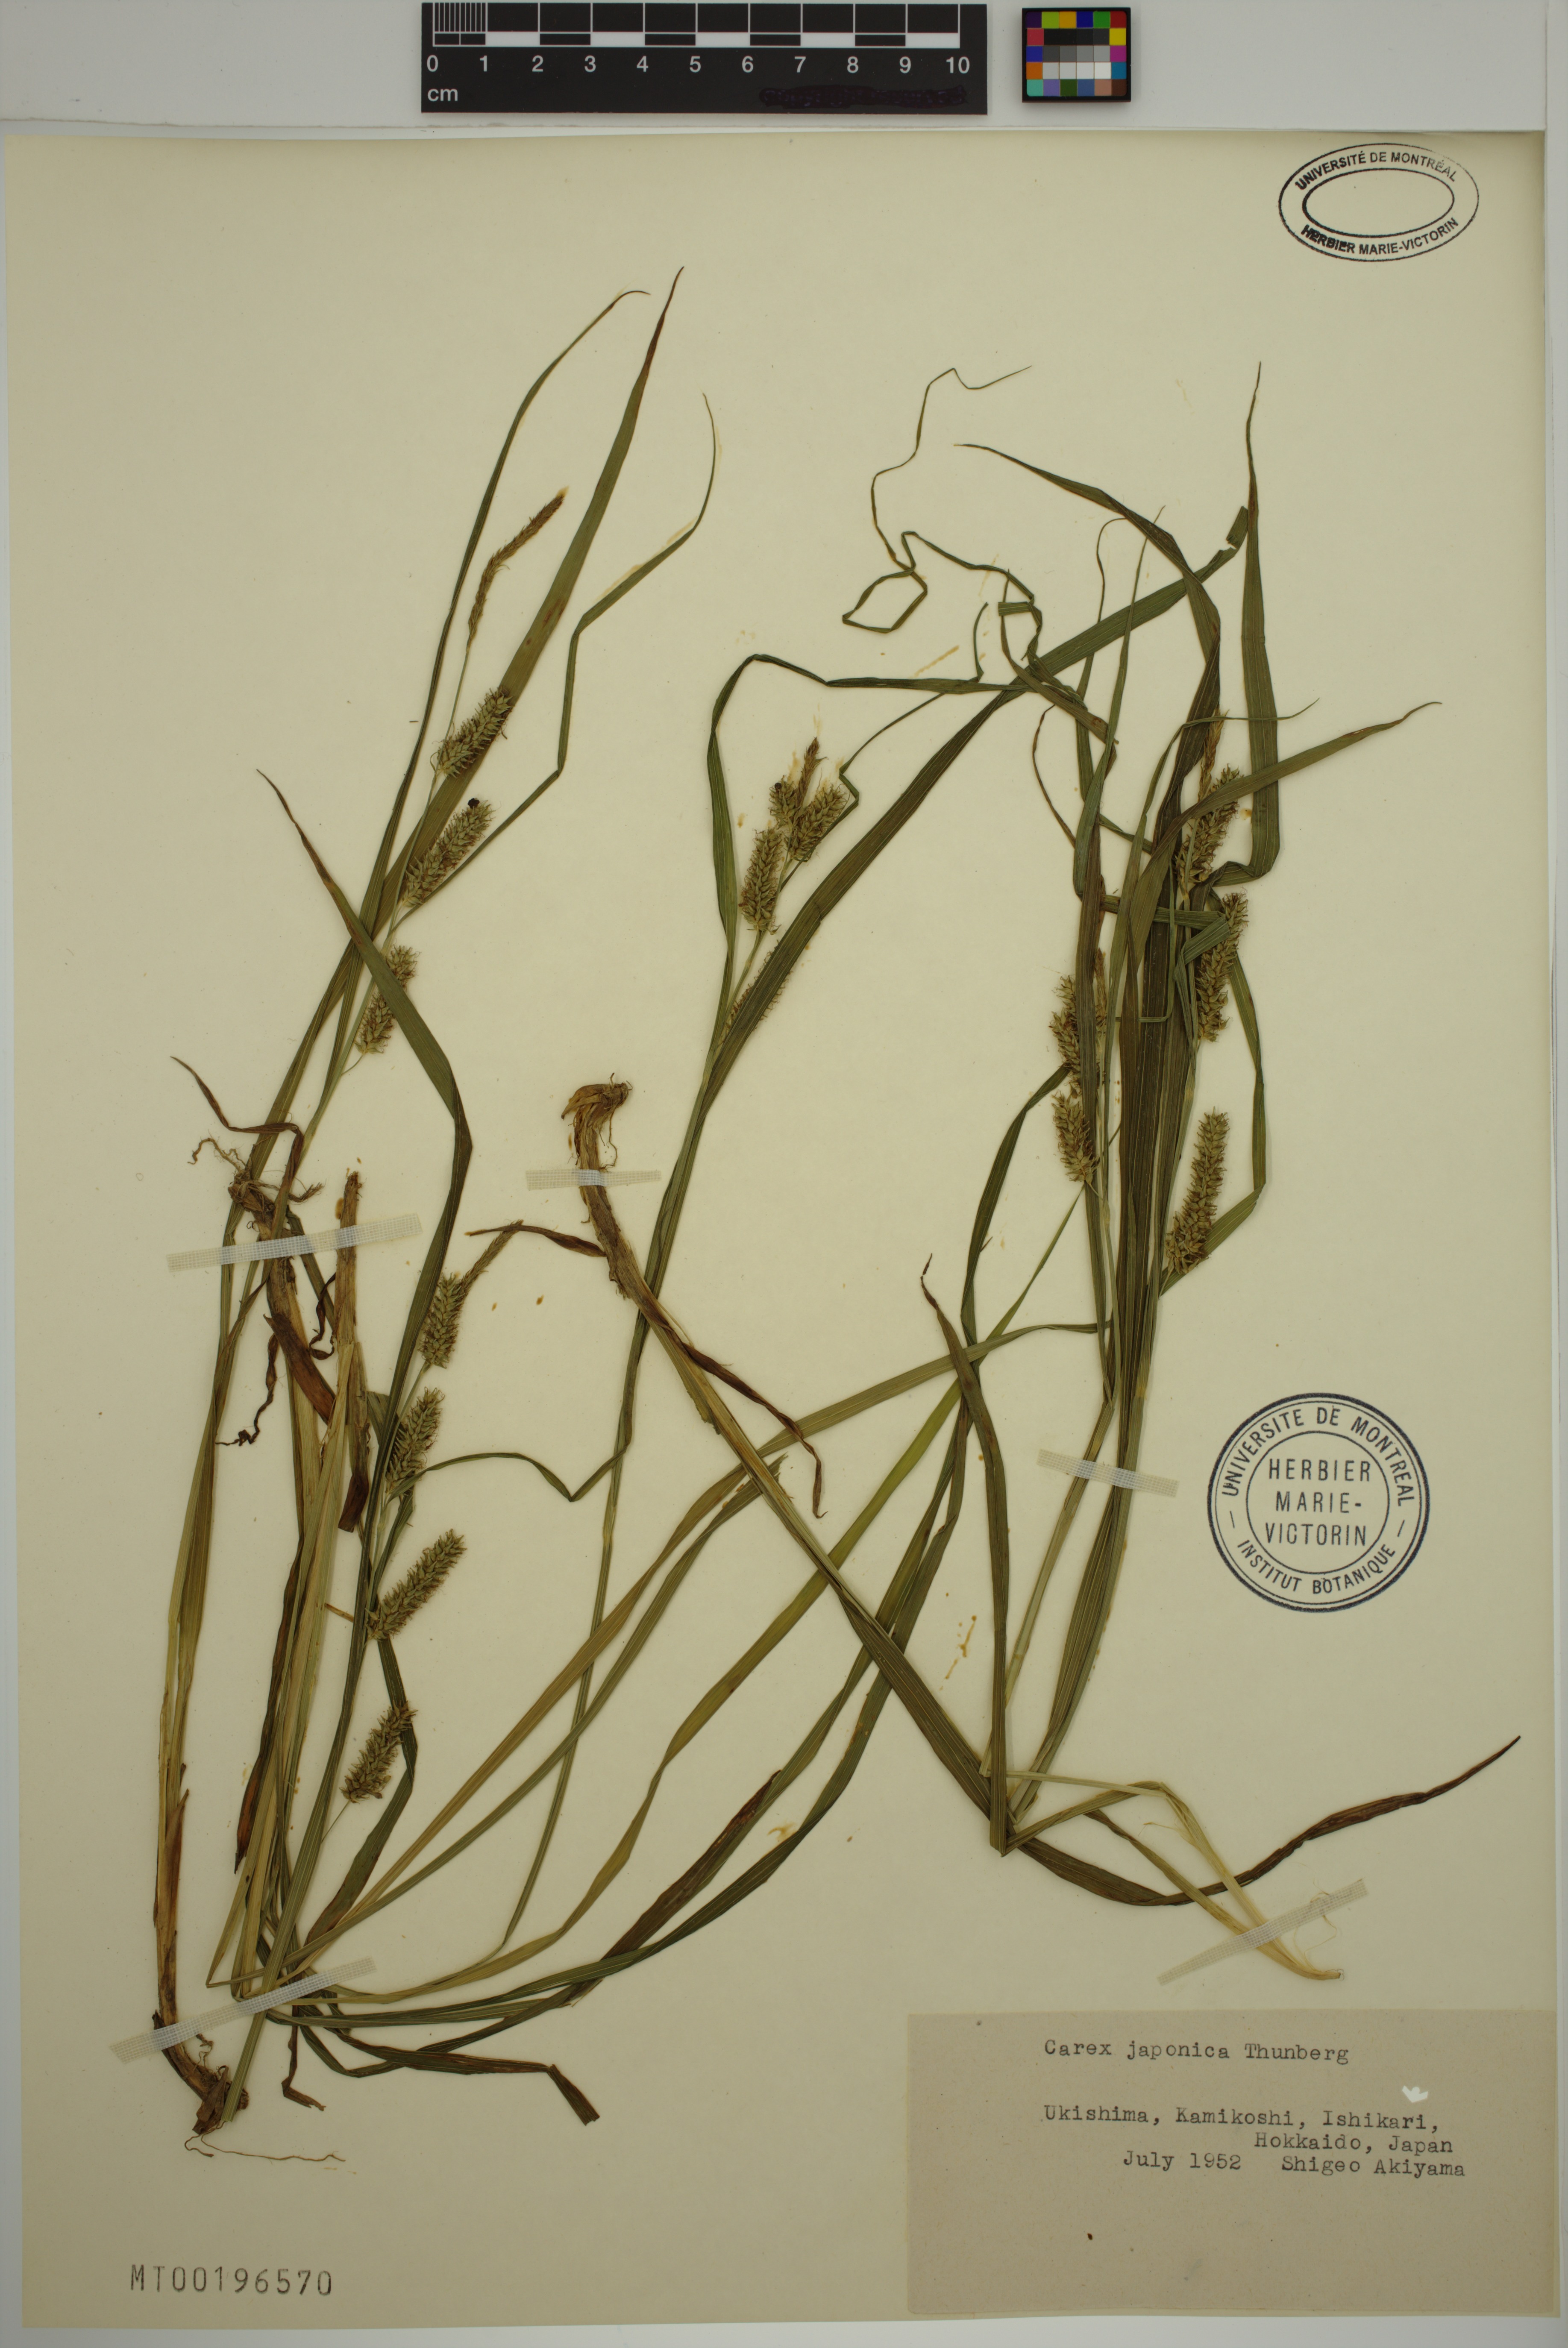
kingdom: Plantae
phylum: Tracheophyta
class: Liliopsida
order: Poales
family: Cyperaceae
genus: Carex
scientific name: Carex japonica
